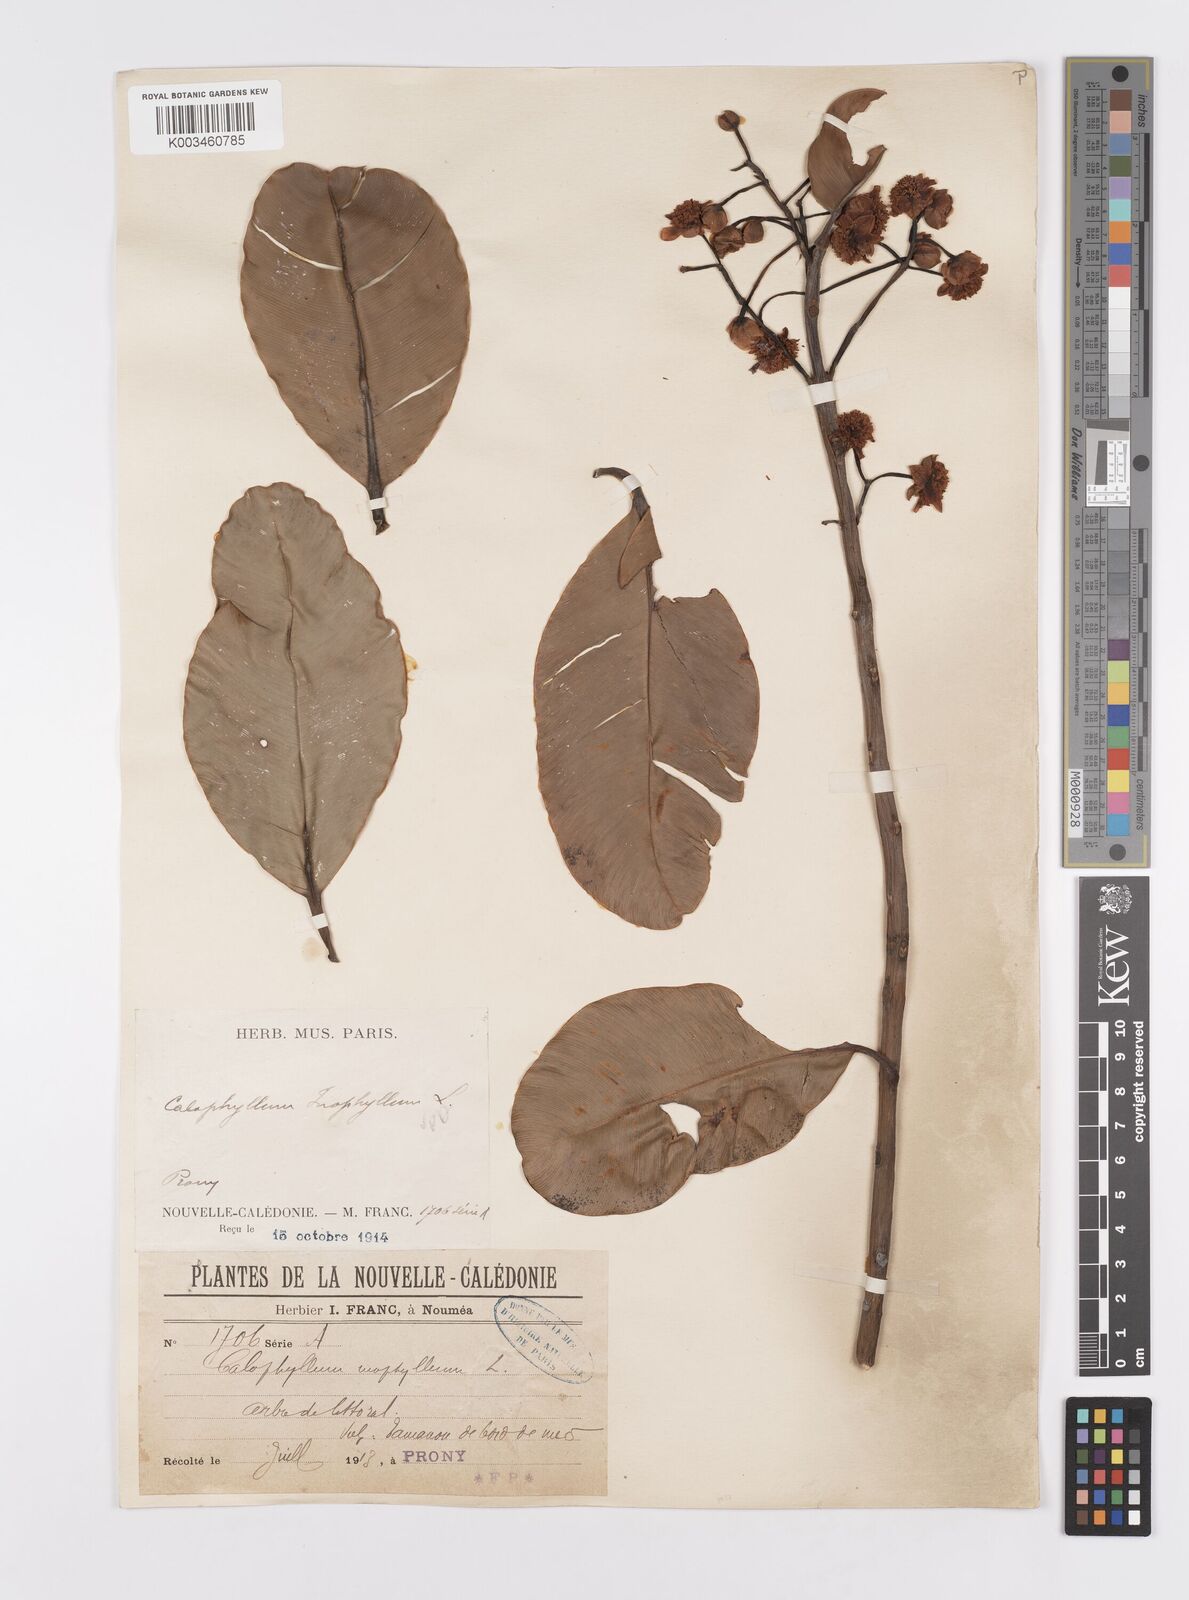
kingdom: Plantae
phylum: Tracheophyta
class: Magnoliopsida
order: Malpighiales
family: Calophyllaceae
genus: Calophyllum
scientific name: Calophyllum inophyllum
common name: Alexandrian laurel
